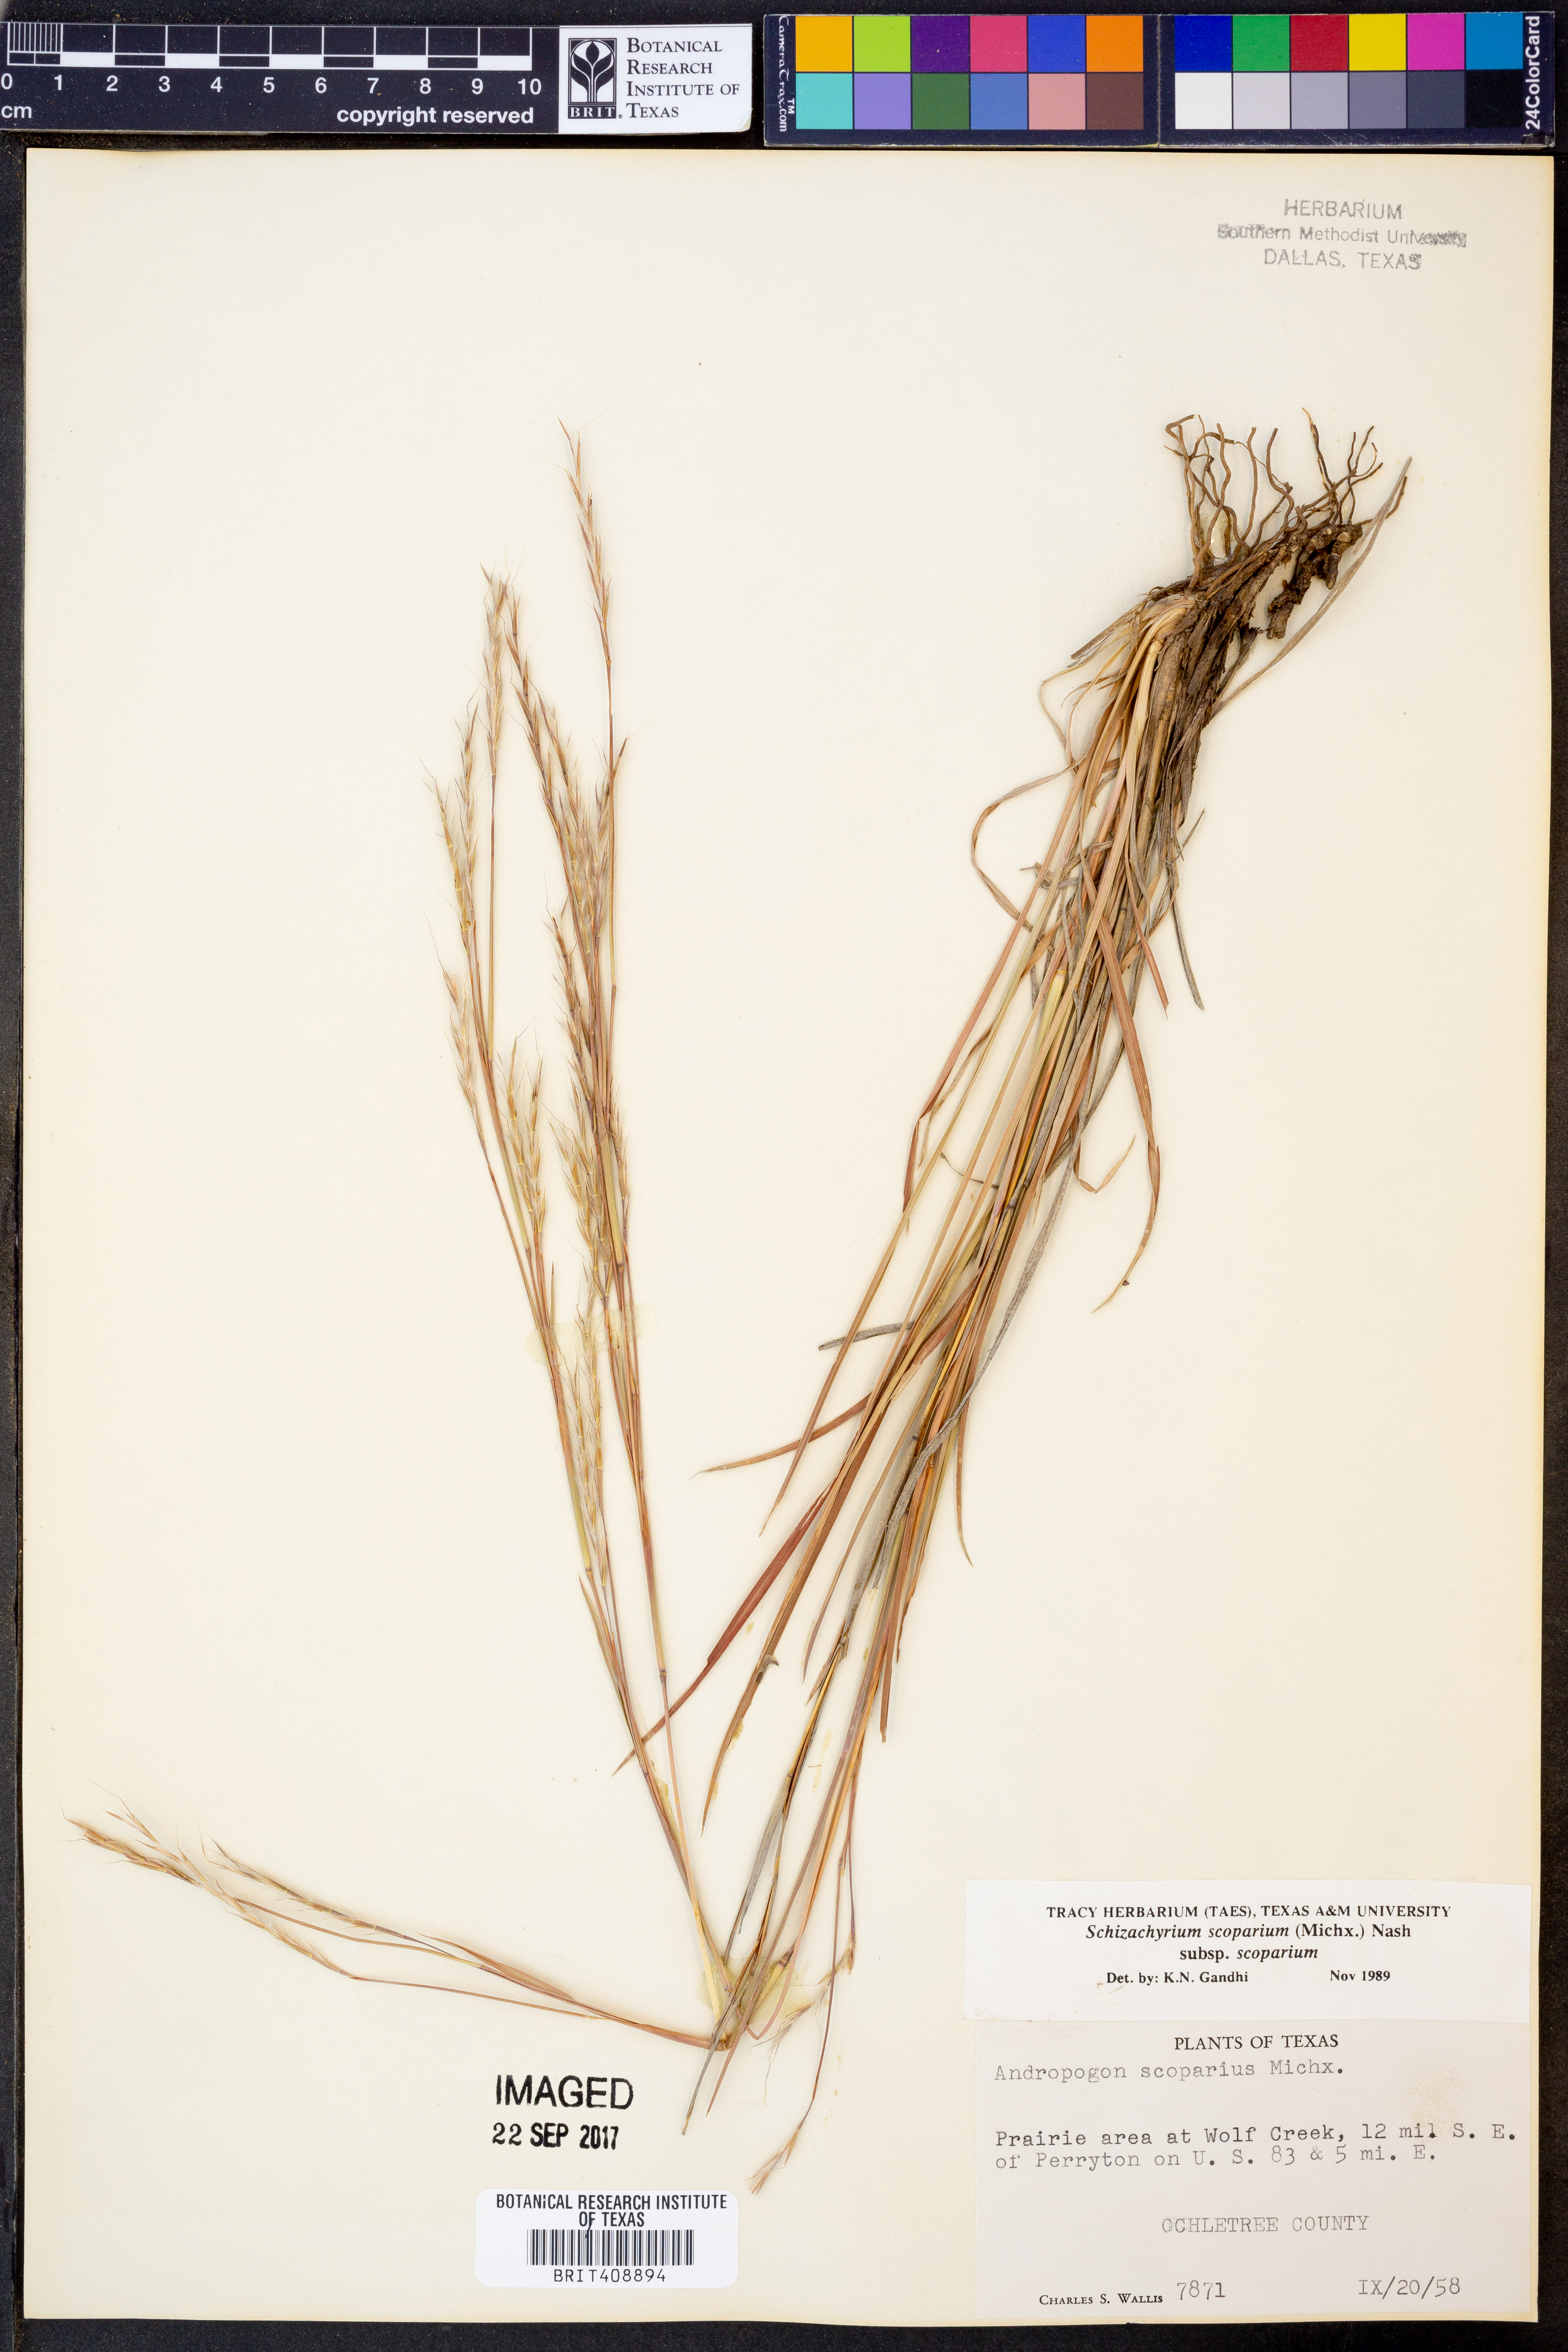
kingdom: Plantae
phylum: Tracheophyta
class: Liliopsida
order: Poales
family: Poaceae
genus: Schizachyrium
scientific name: Schizachyrium scoparium
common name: Little bluestem
